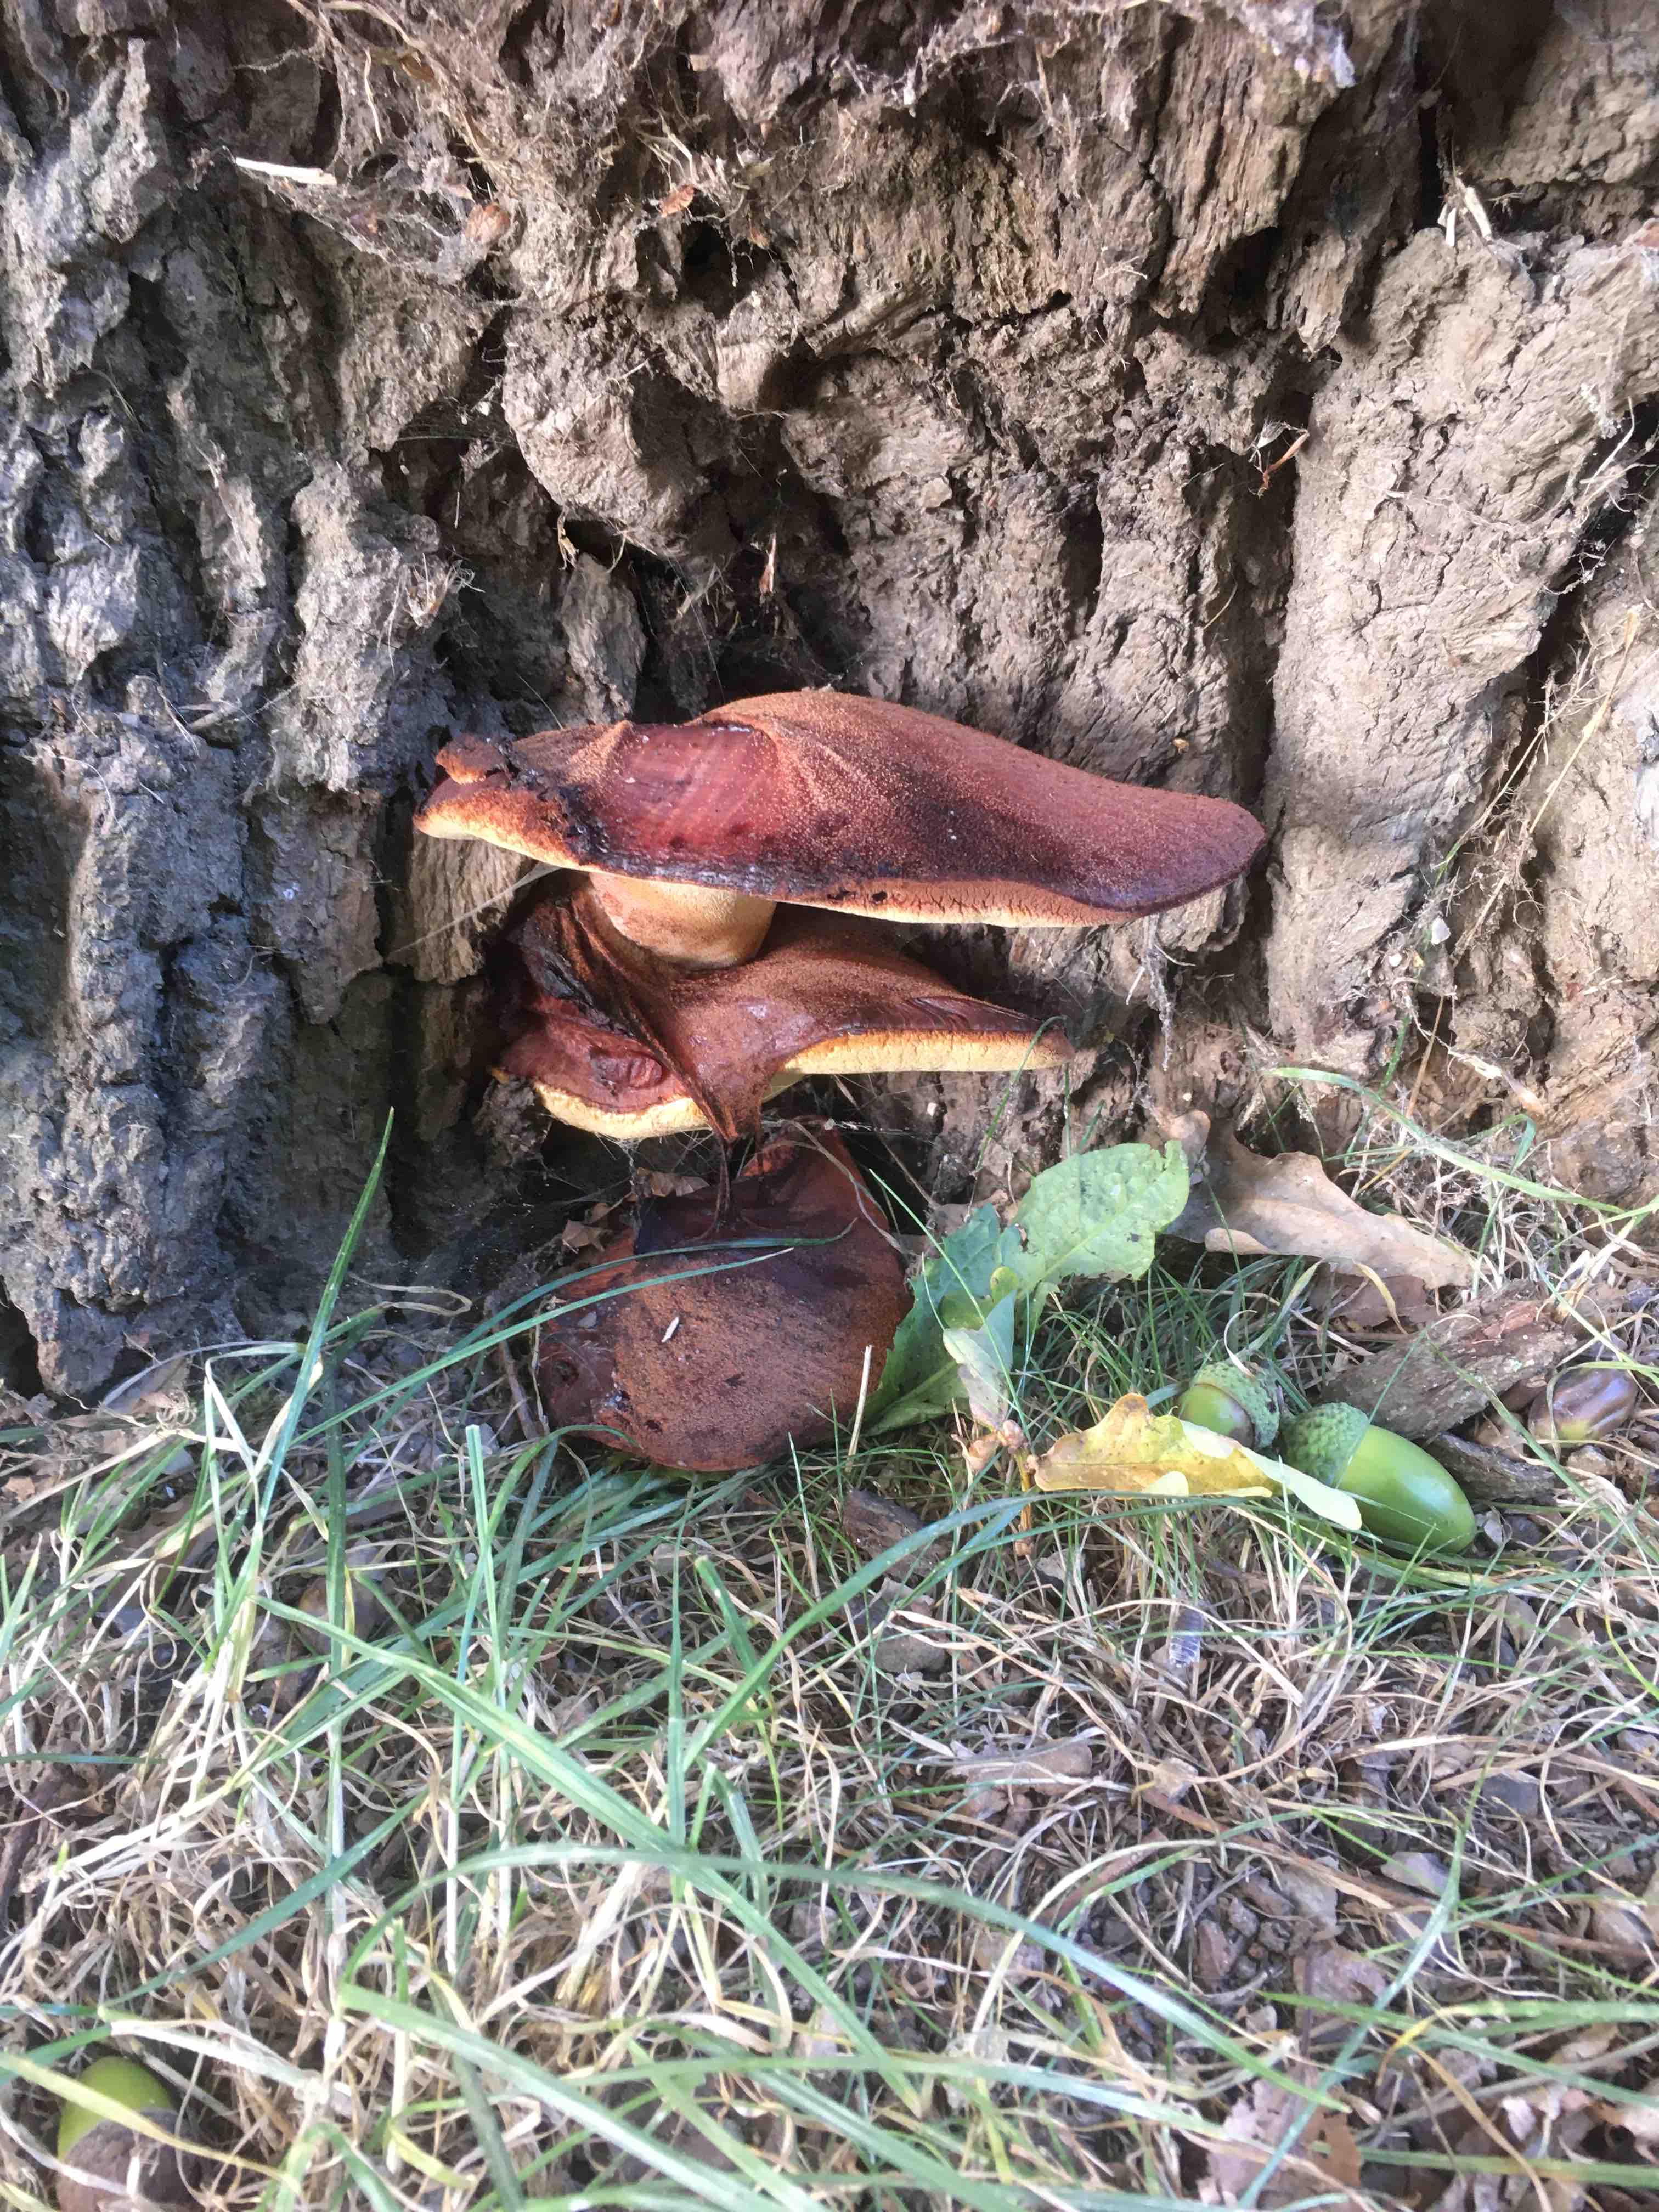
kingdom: Fungi
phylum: Basidiomycota
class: Agaricomycetes
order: Agaricales
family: Fistulinaceae
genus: Fistulina
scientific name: Fistulina hepatica
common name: oksetunge
